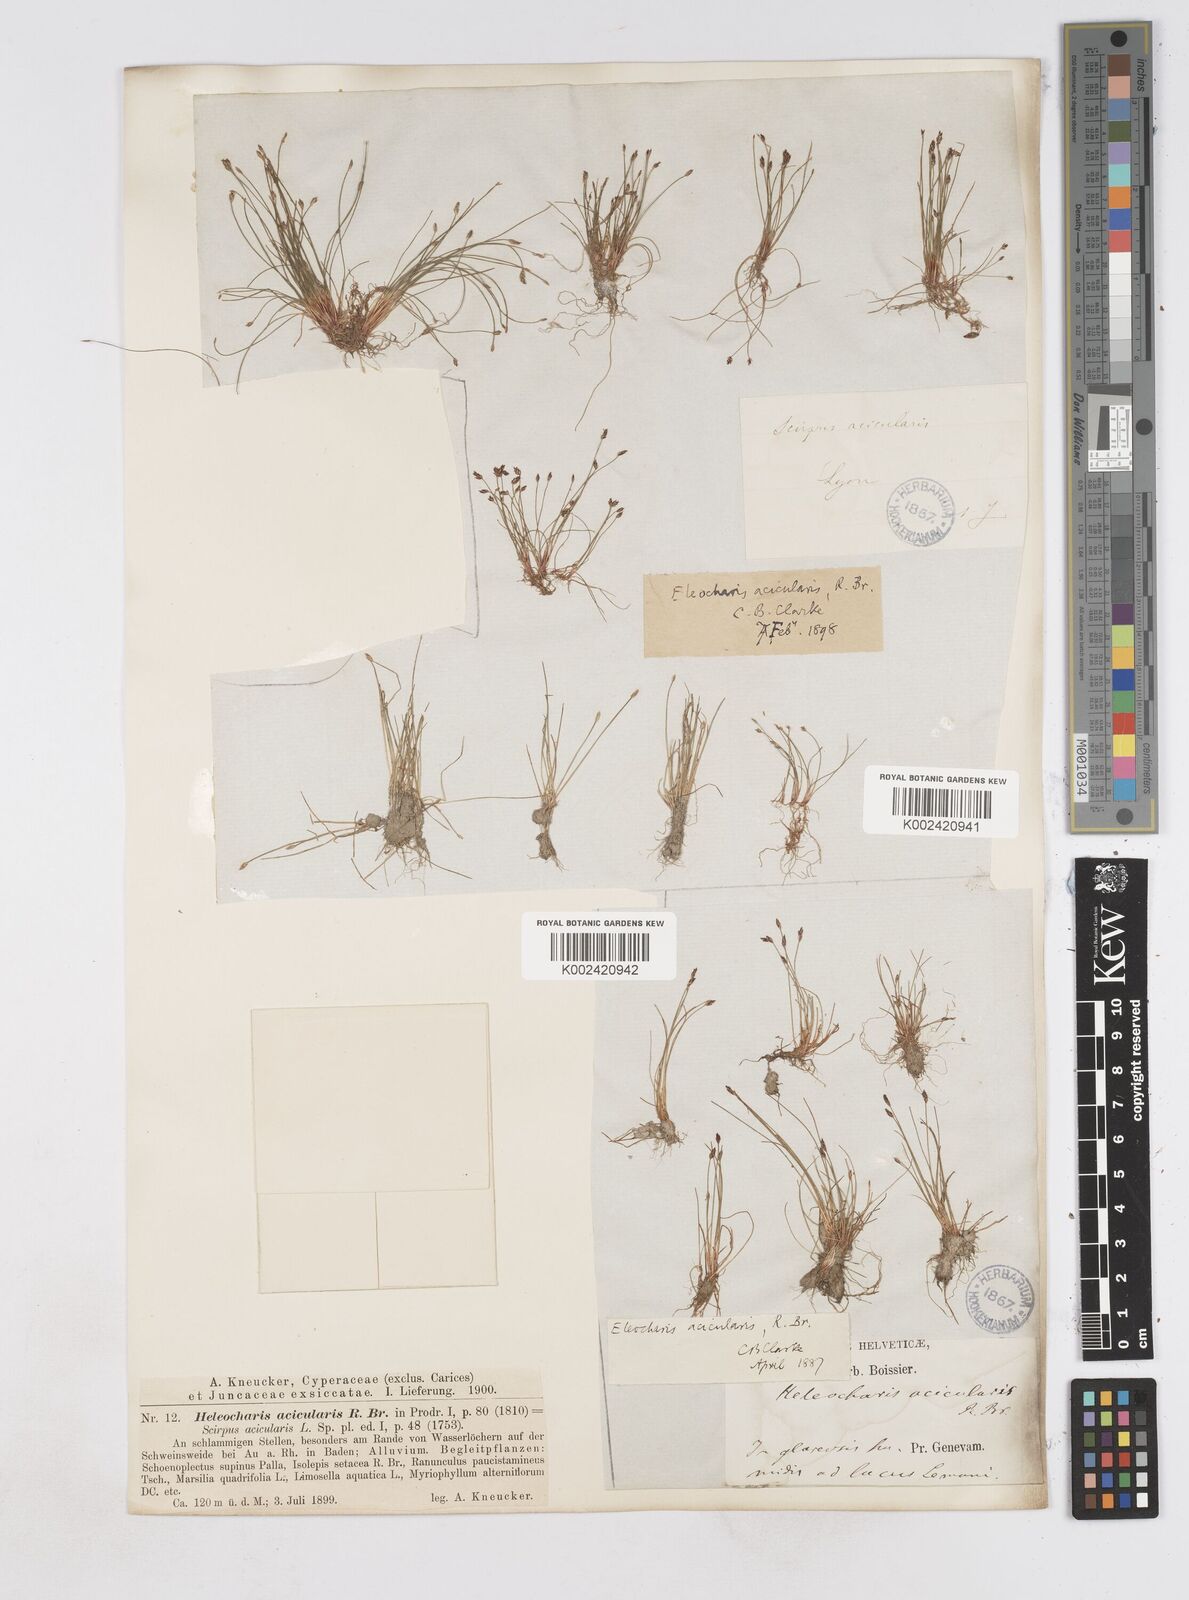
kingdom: Plantae
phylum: Tracheophyta
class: Liliopsida
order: Poales
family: Cyperaceae
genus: Eleocharis
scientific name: Eleocharis acicularis
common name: Needle spike-rush
